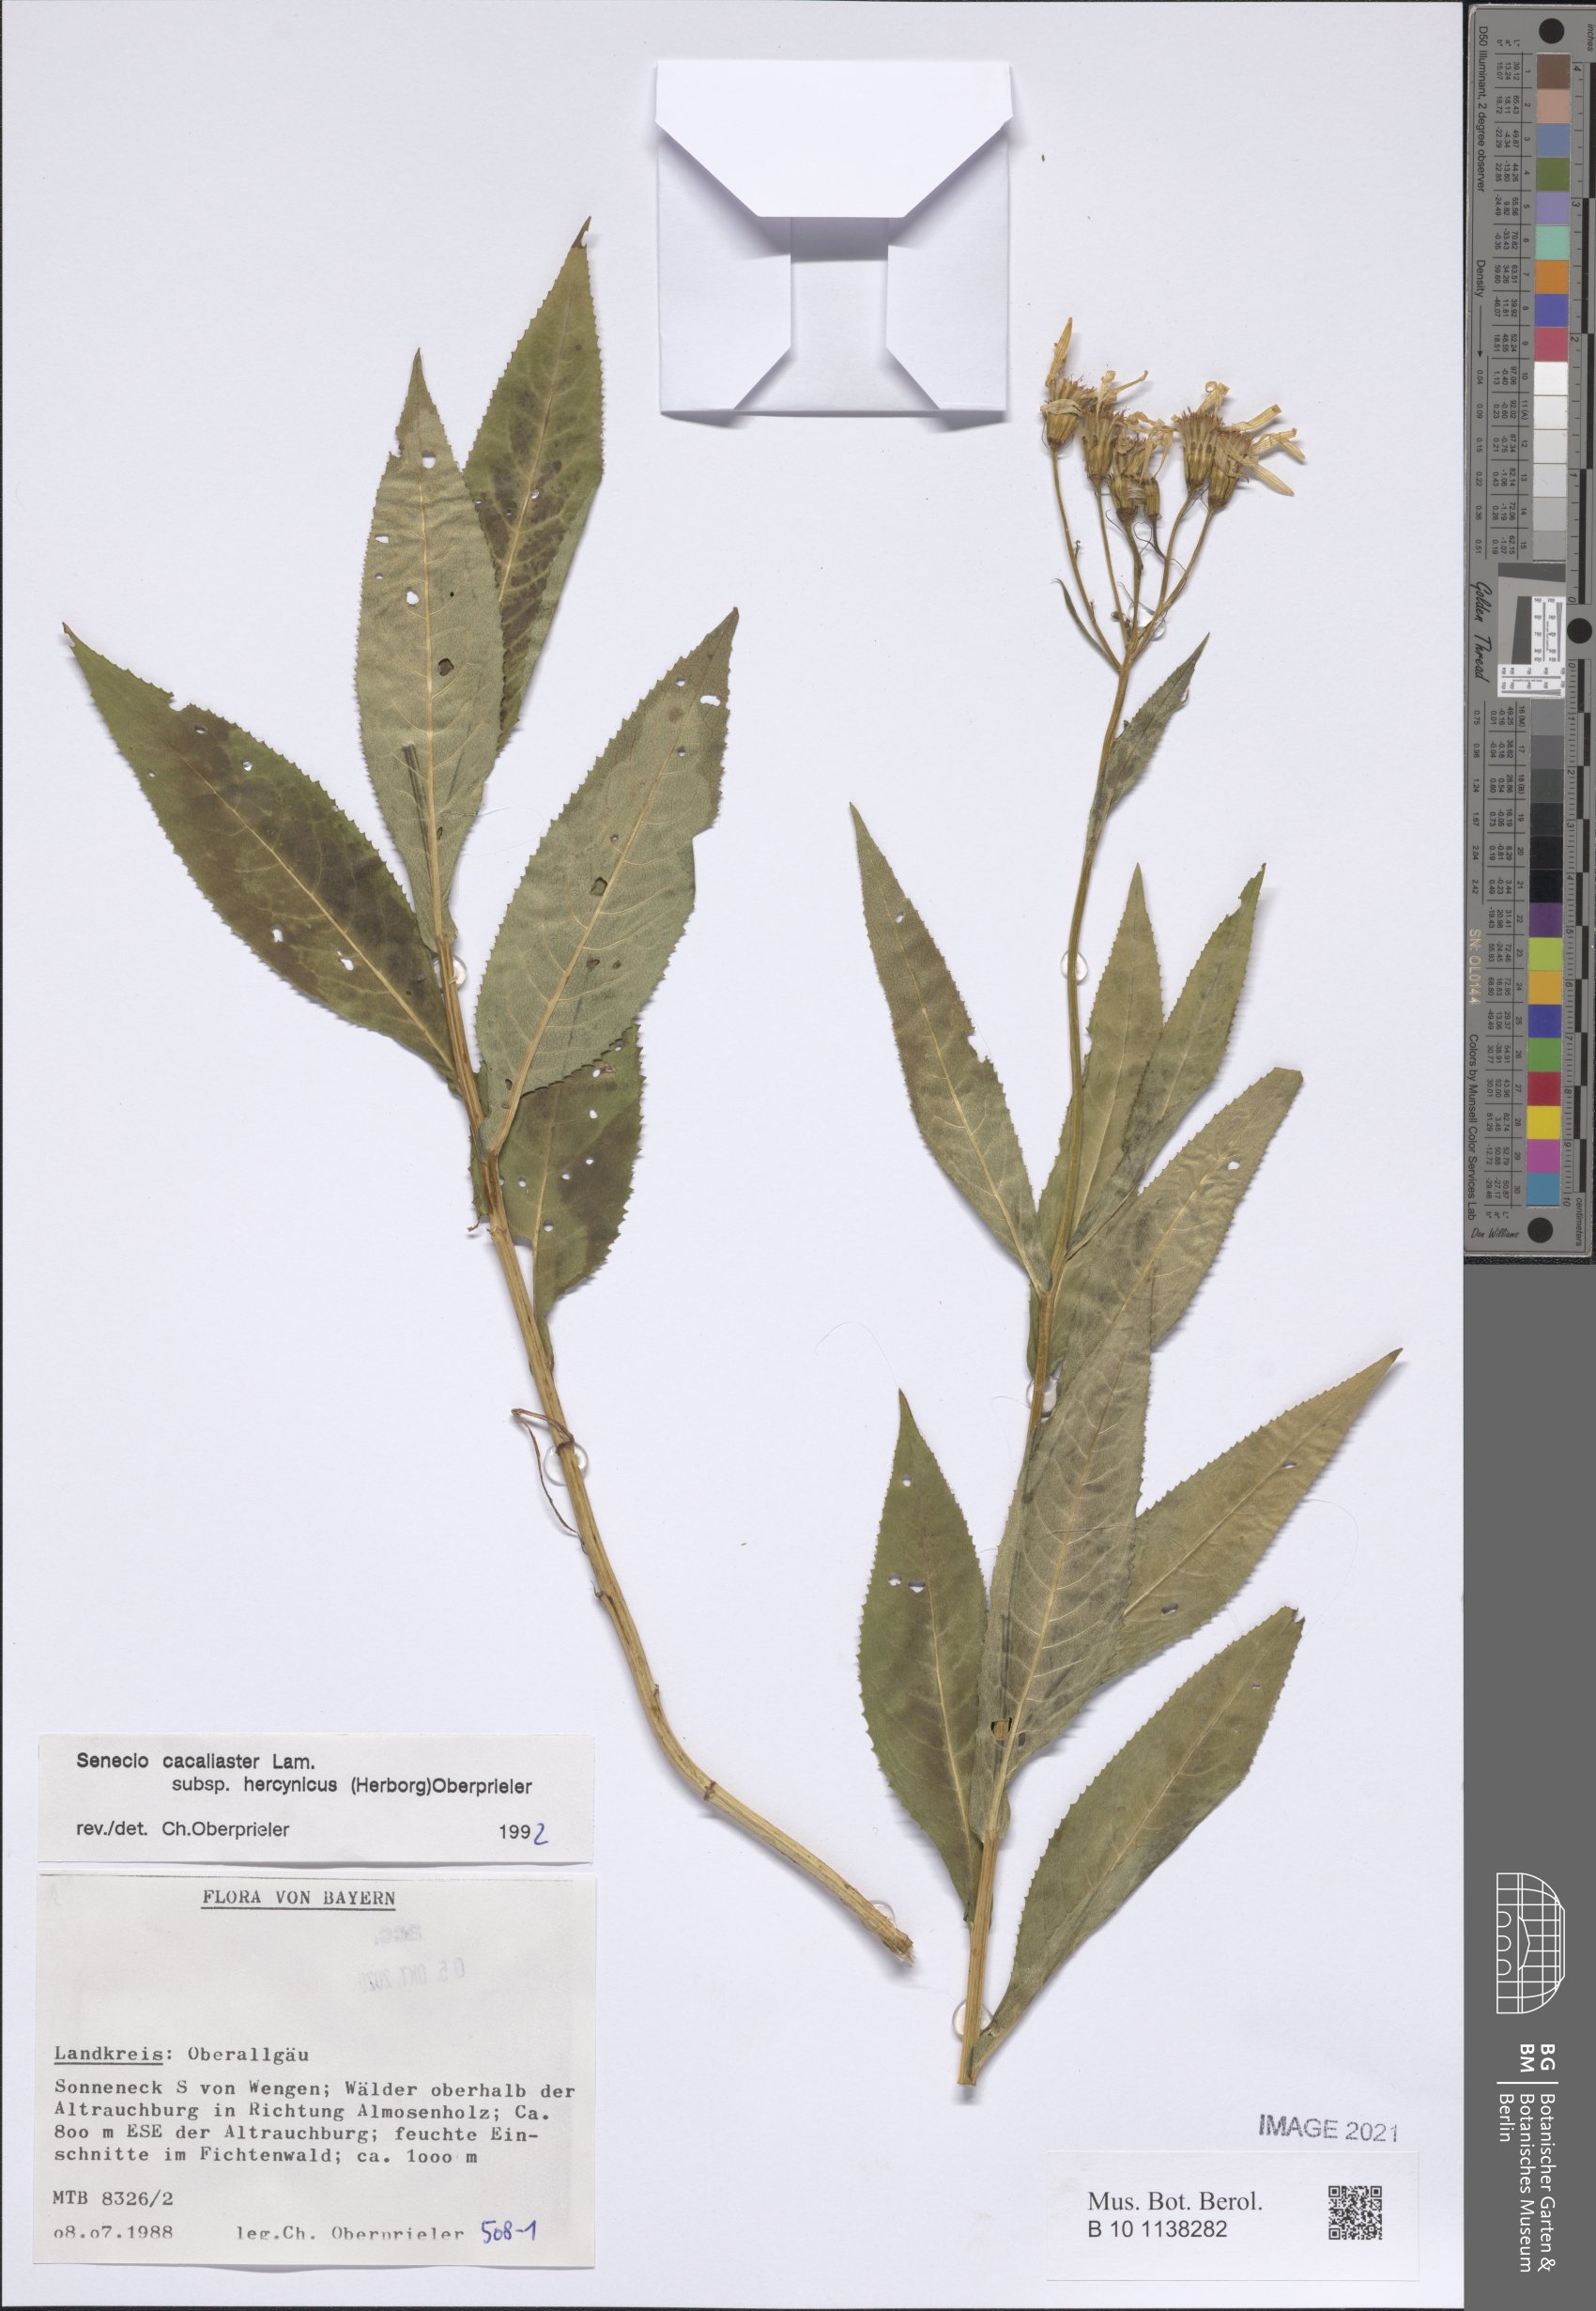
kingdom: Plantae
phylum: Tracheophyta
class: Magnoliopsida
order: Asterales
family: Asteraceae
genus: Senecio
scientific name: Senecio hercynicus
